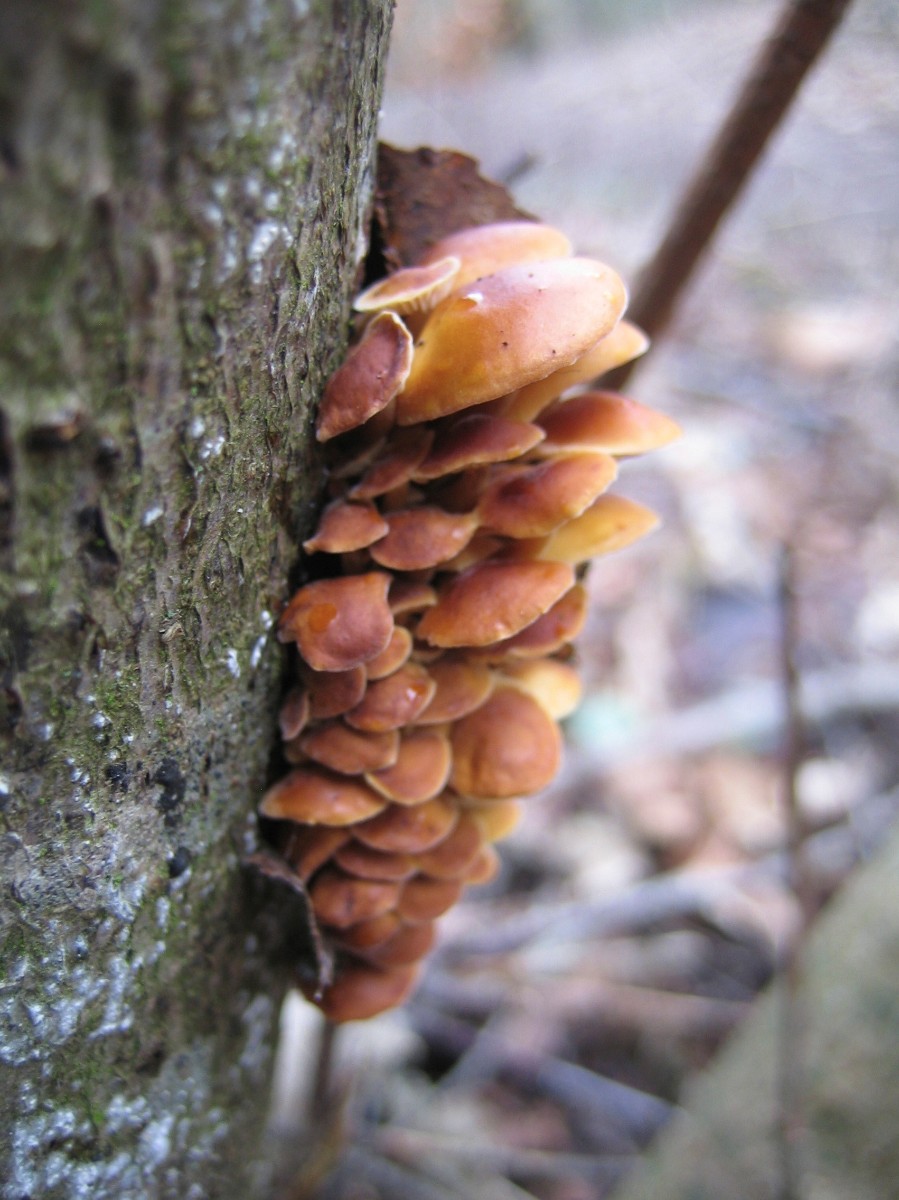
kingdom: Fungi
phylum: Basidiomycota
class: Agaricomycetes
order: Agaricales
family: Physalacriaceae
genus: Flammulina
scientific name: Flammulina velutipes
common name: gul fløjlsfod
